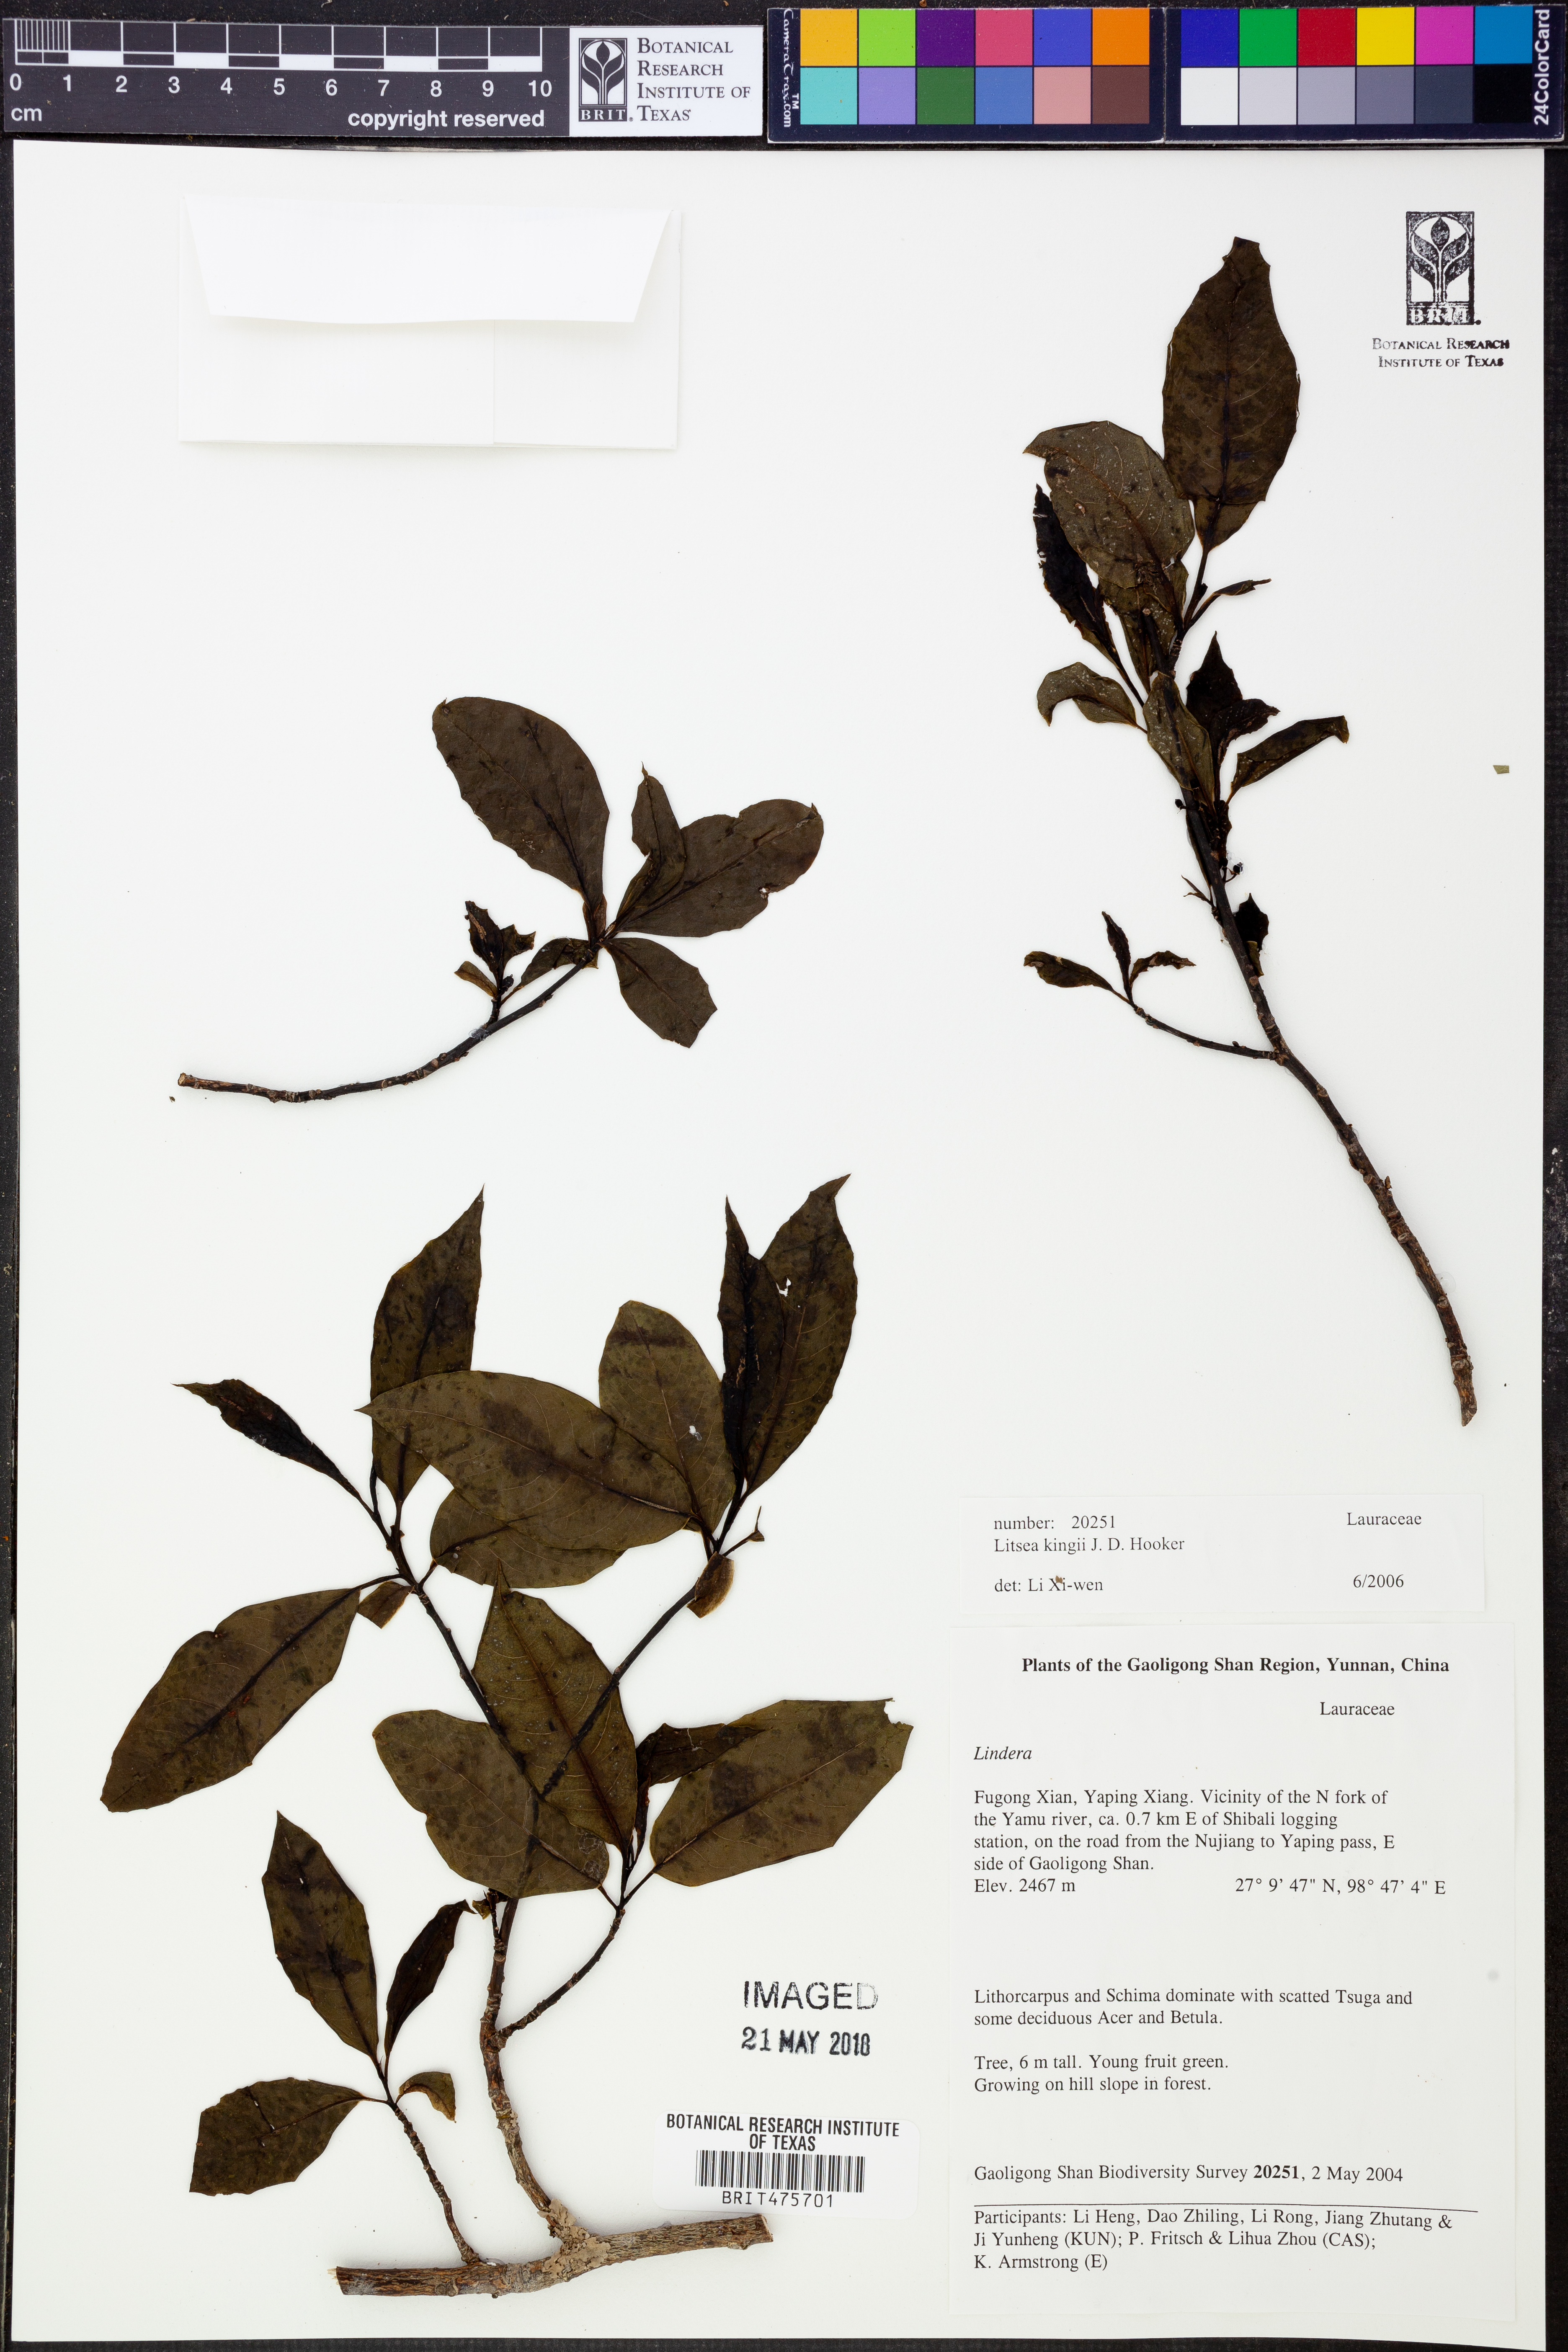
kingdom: Plantae
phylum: Tracheophyta
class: Magnoliopsida
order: Proteales
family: Sabiaceae
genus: Sabia
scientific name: Sabia campanulata
